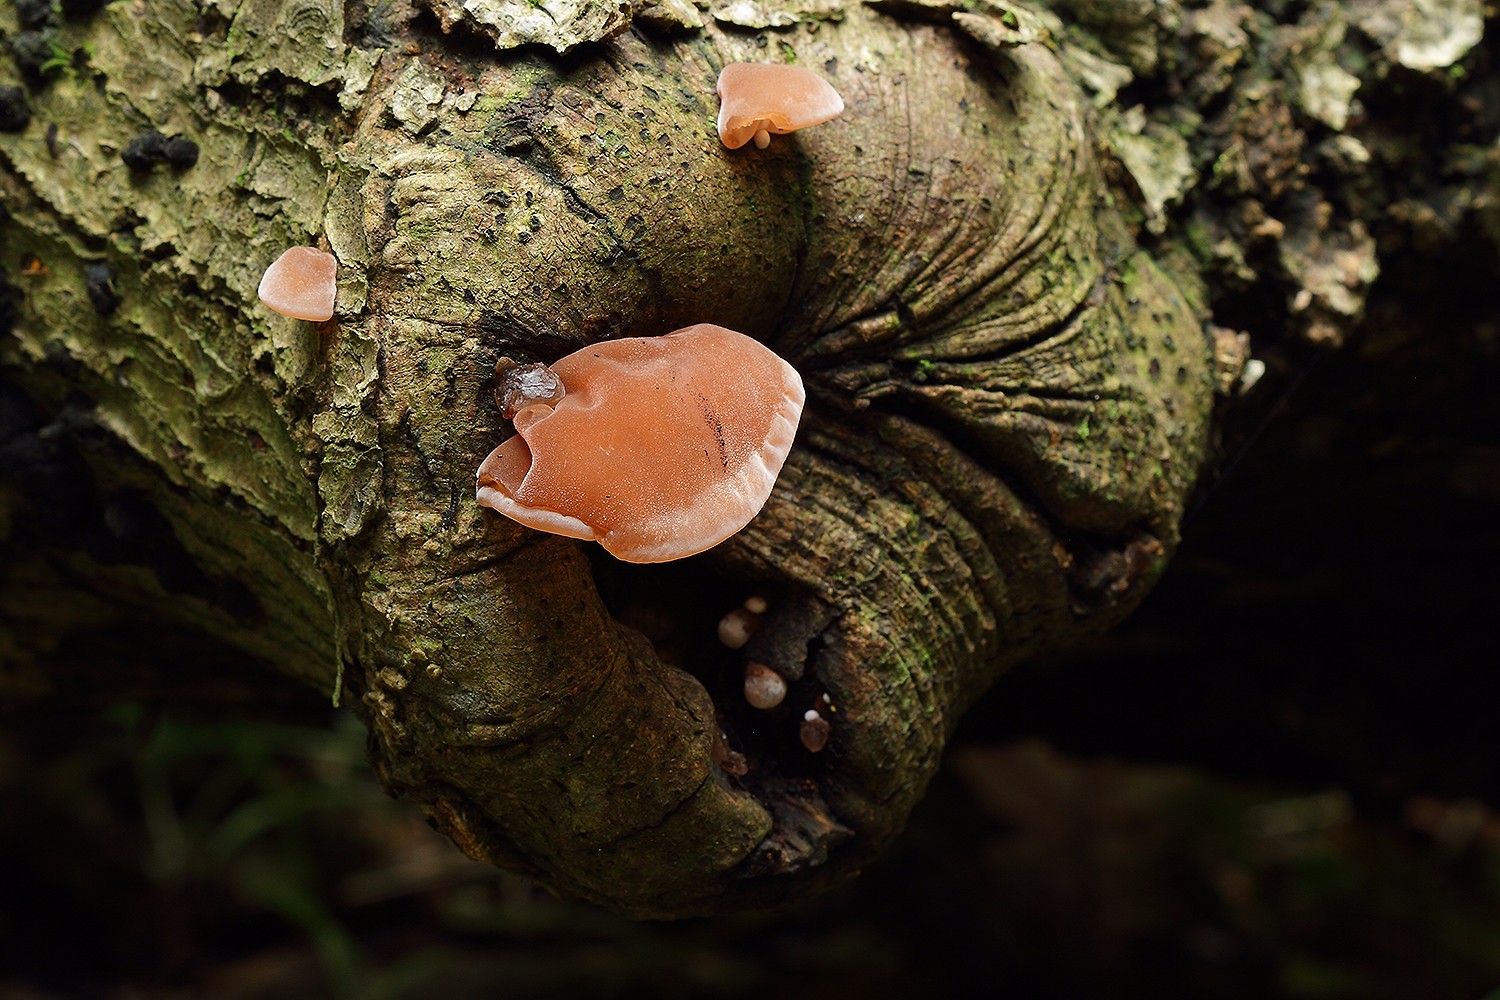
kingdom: Fungi
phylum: Basidiomycota
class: Agaricomycetes
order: Auriculariales
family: Auriculariaceae
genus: Auricularia
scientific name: Auricularia auricula-judae
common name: almindelig judasøre
